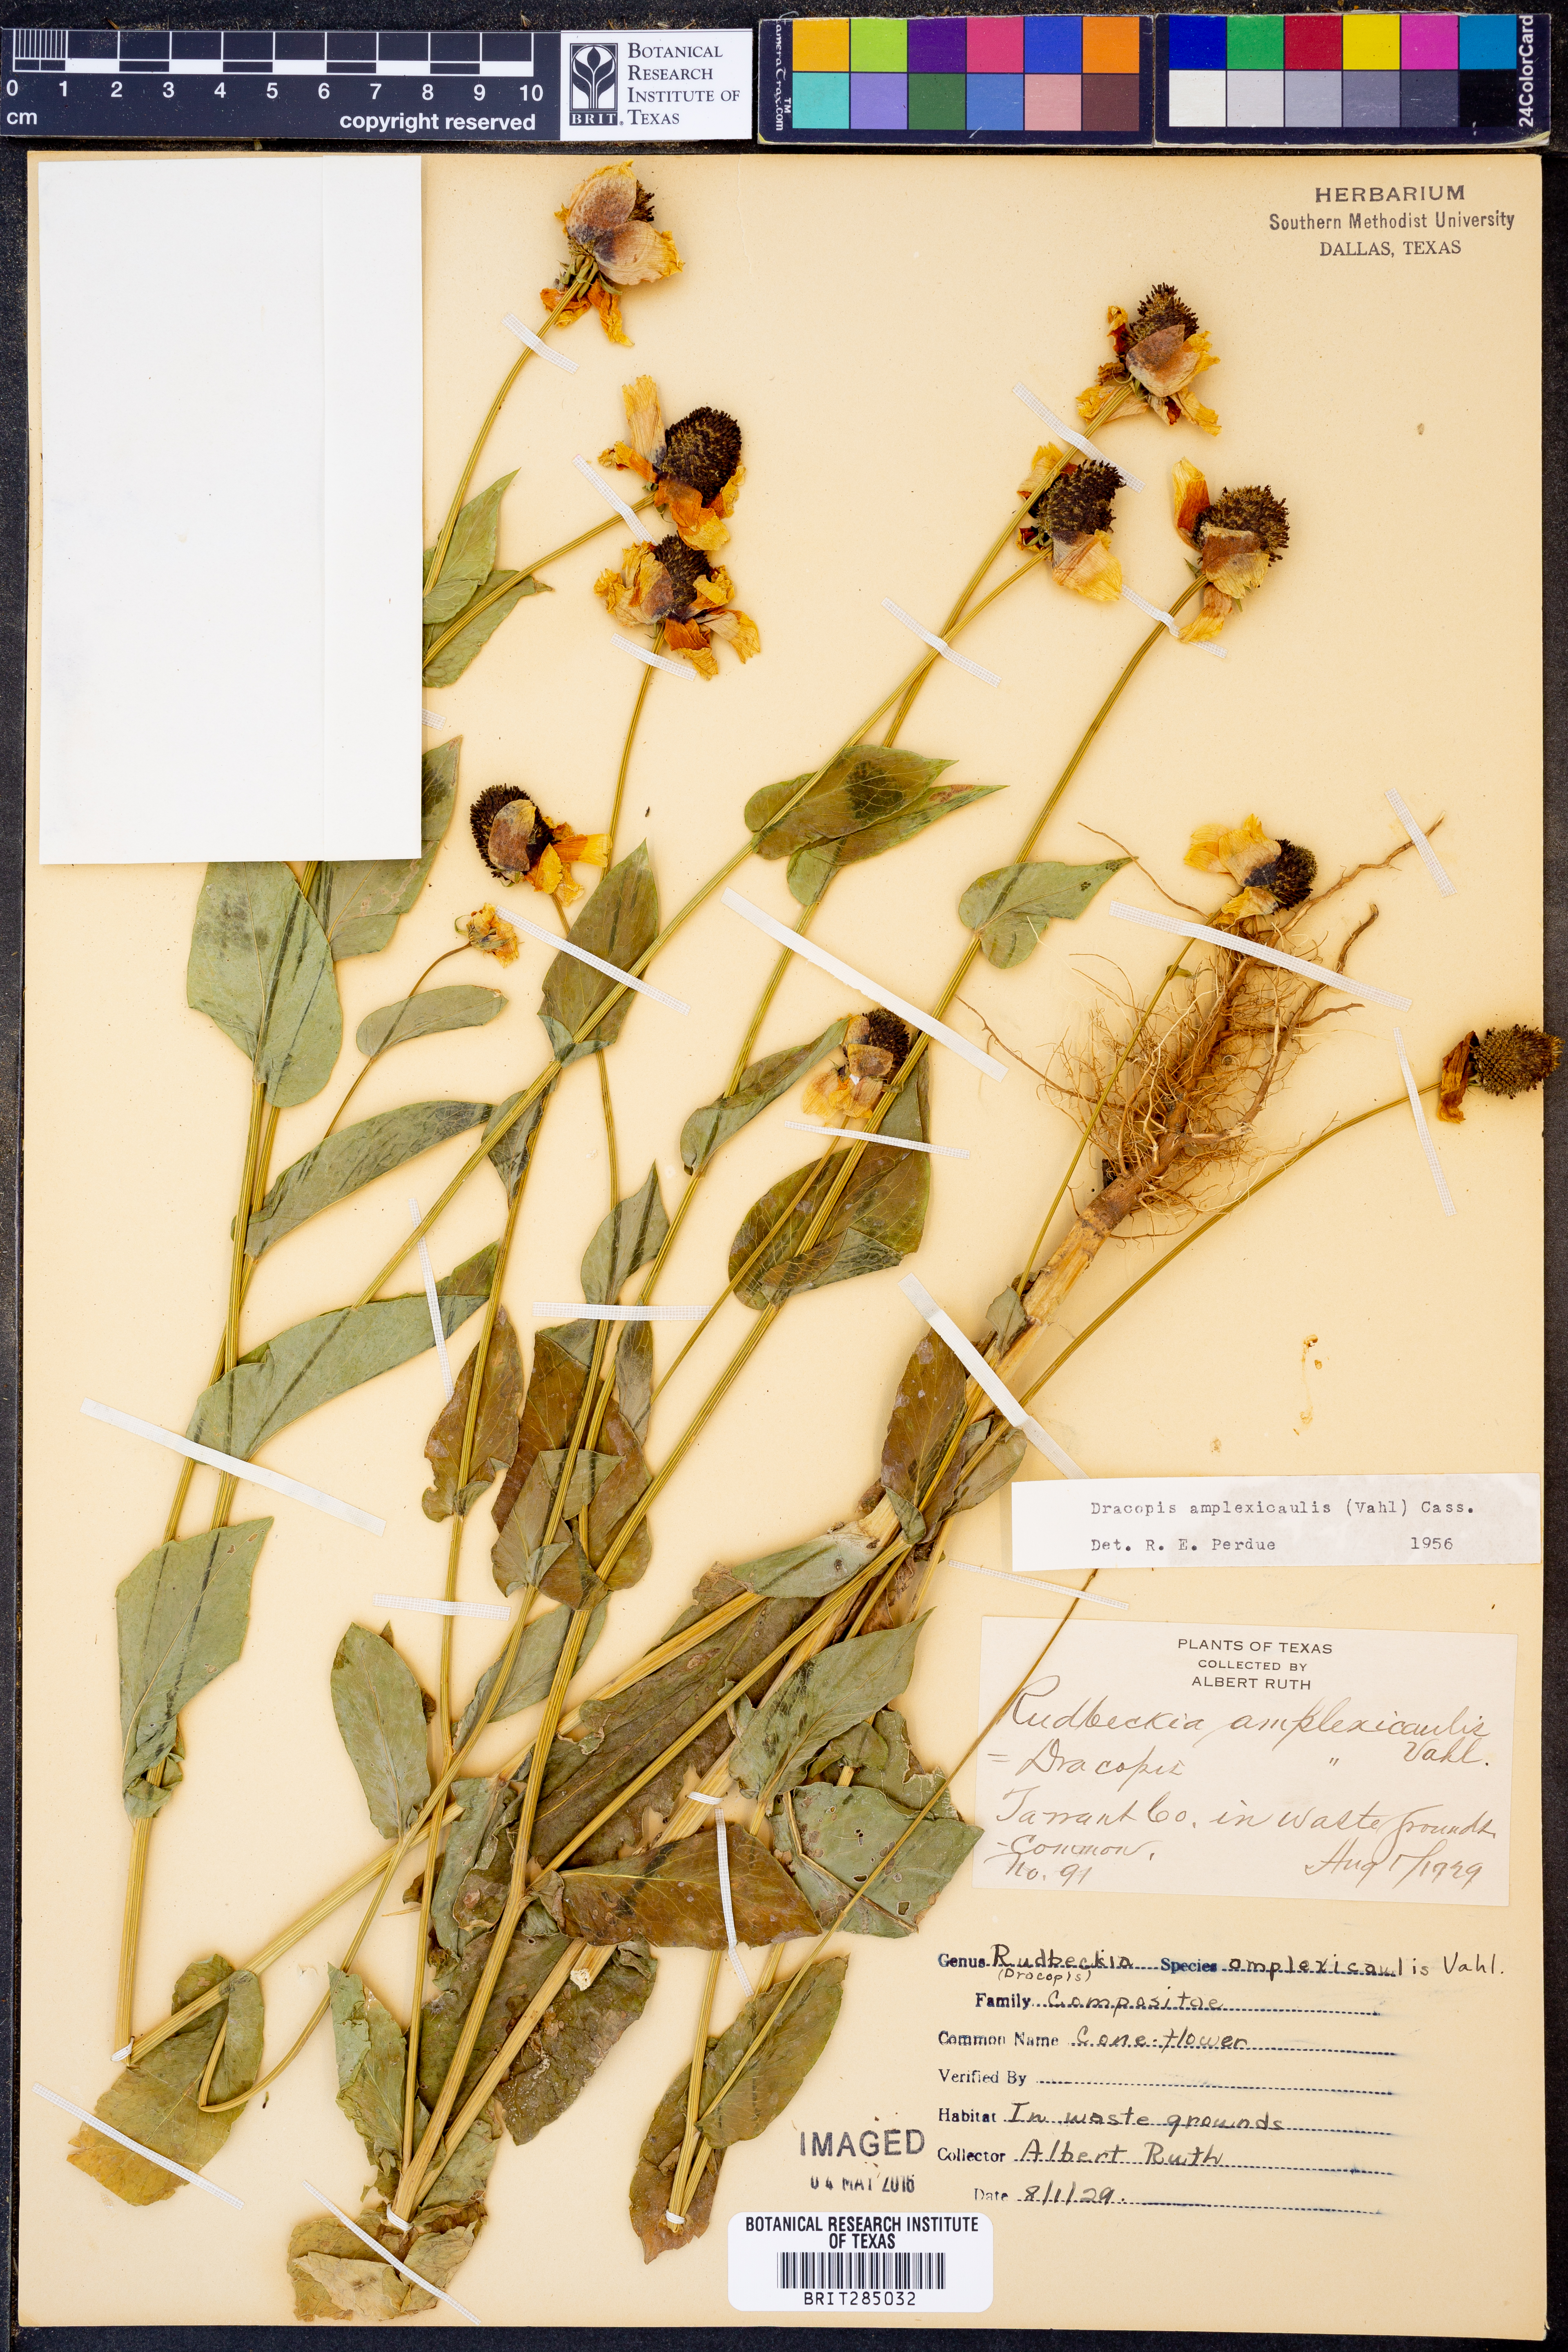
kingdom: Plantae
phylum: Tracheophyta
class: Magnoliopsida
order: Asterales
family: Asteraceae
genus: Rudbeckia
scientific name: Rudbeckia amplexicaulis
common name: Clasping-leaf coneflower
